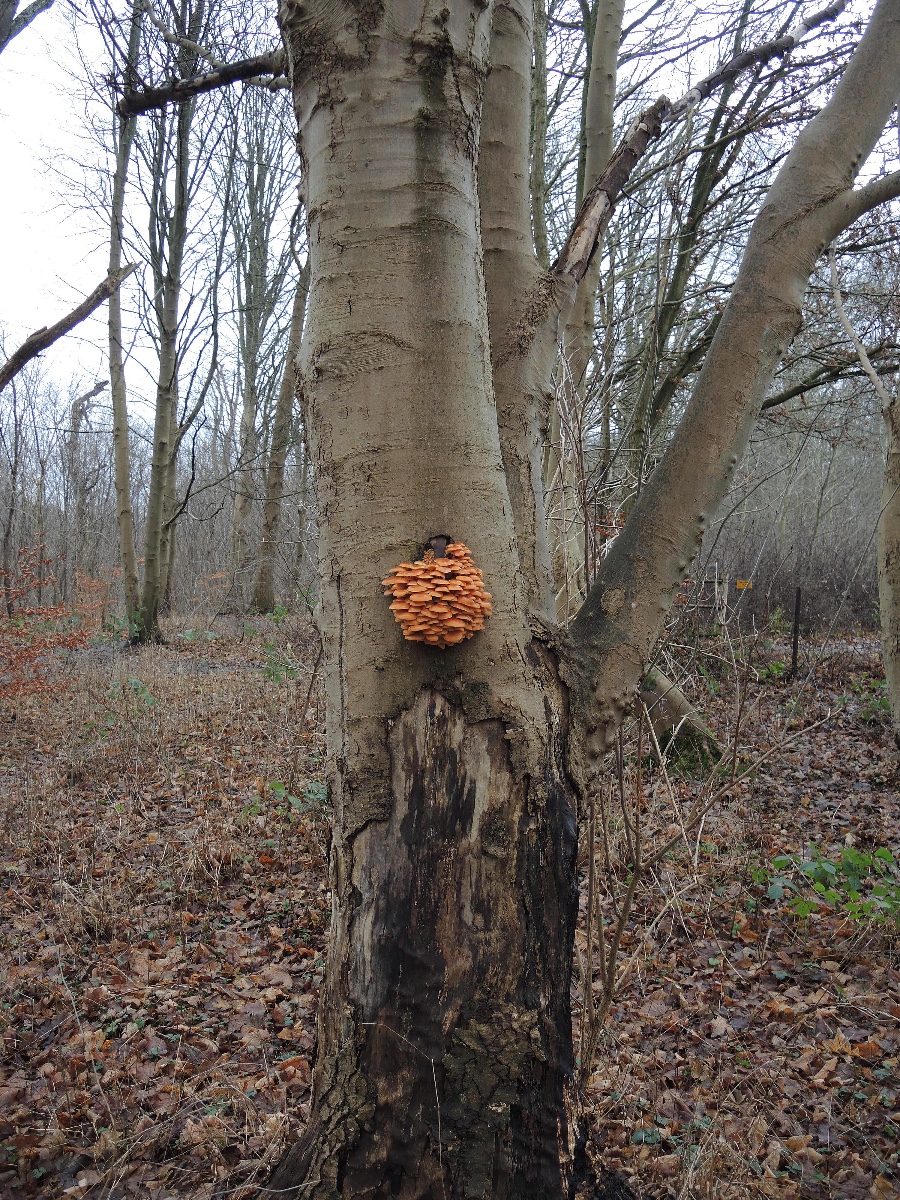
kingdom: Fungi
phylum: Basidiomycota
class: Agaricomycetes
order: Agaricales
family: Physalacriaceae
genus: Flammulina
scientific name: Flammulina velutipes
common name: gul fløjlsfod
